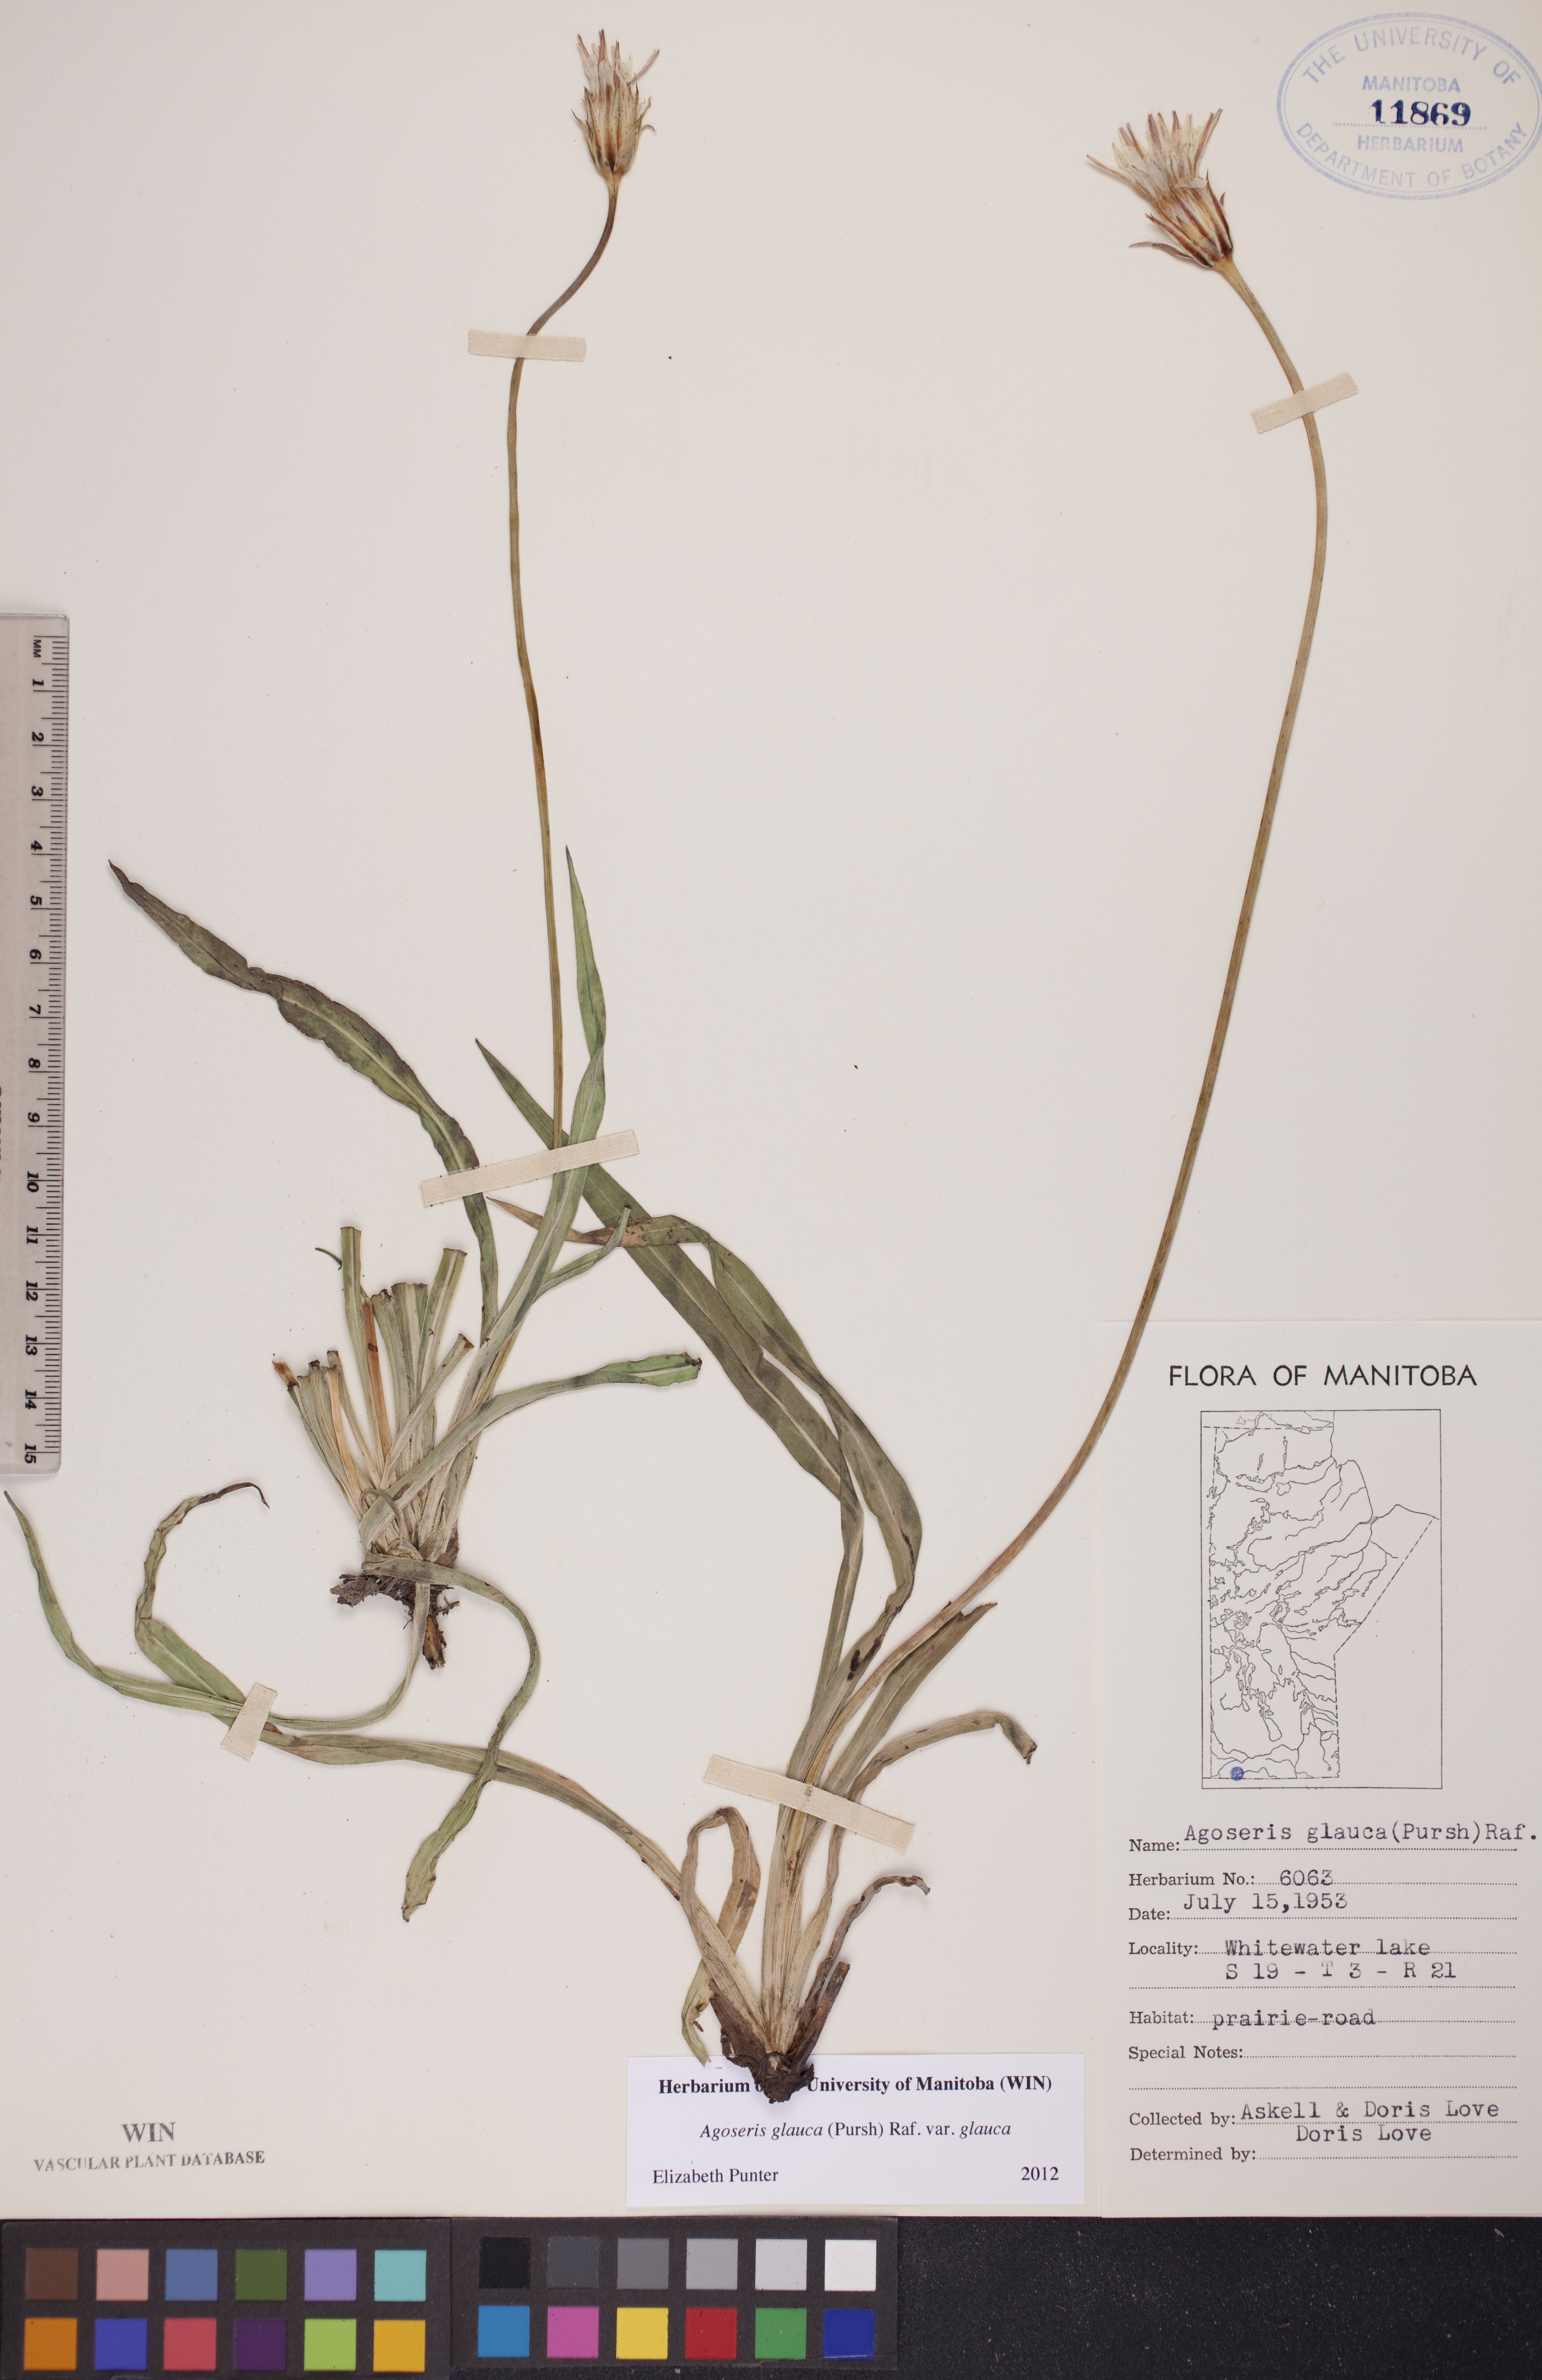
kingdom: Plantae
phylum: Tracheophyta
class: Magnoliopsida
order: Asterales
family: Asteraceae
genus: Agoseris
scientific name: Agoseris glauca
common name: Prairie agoseris
